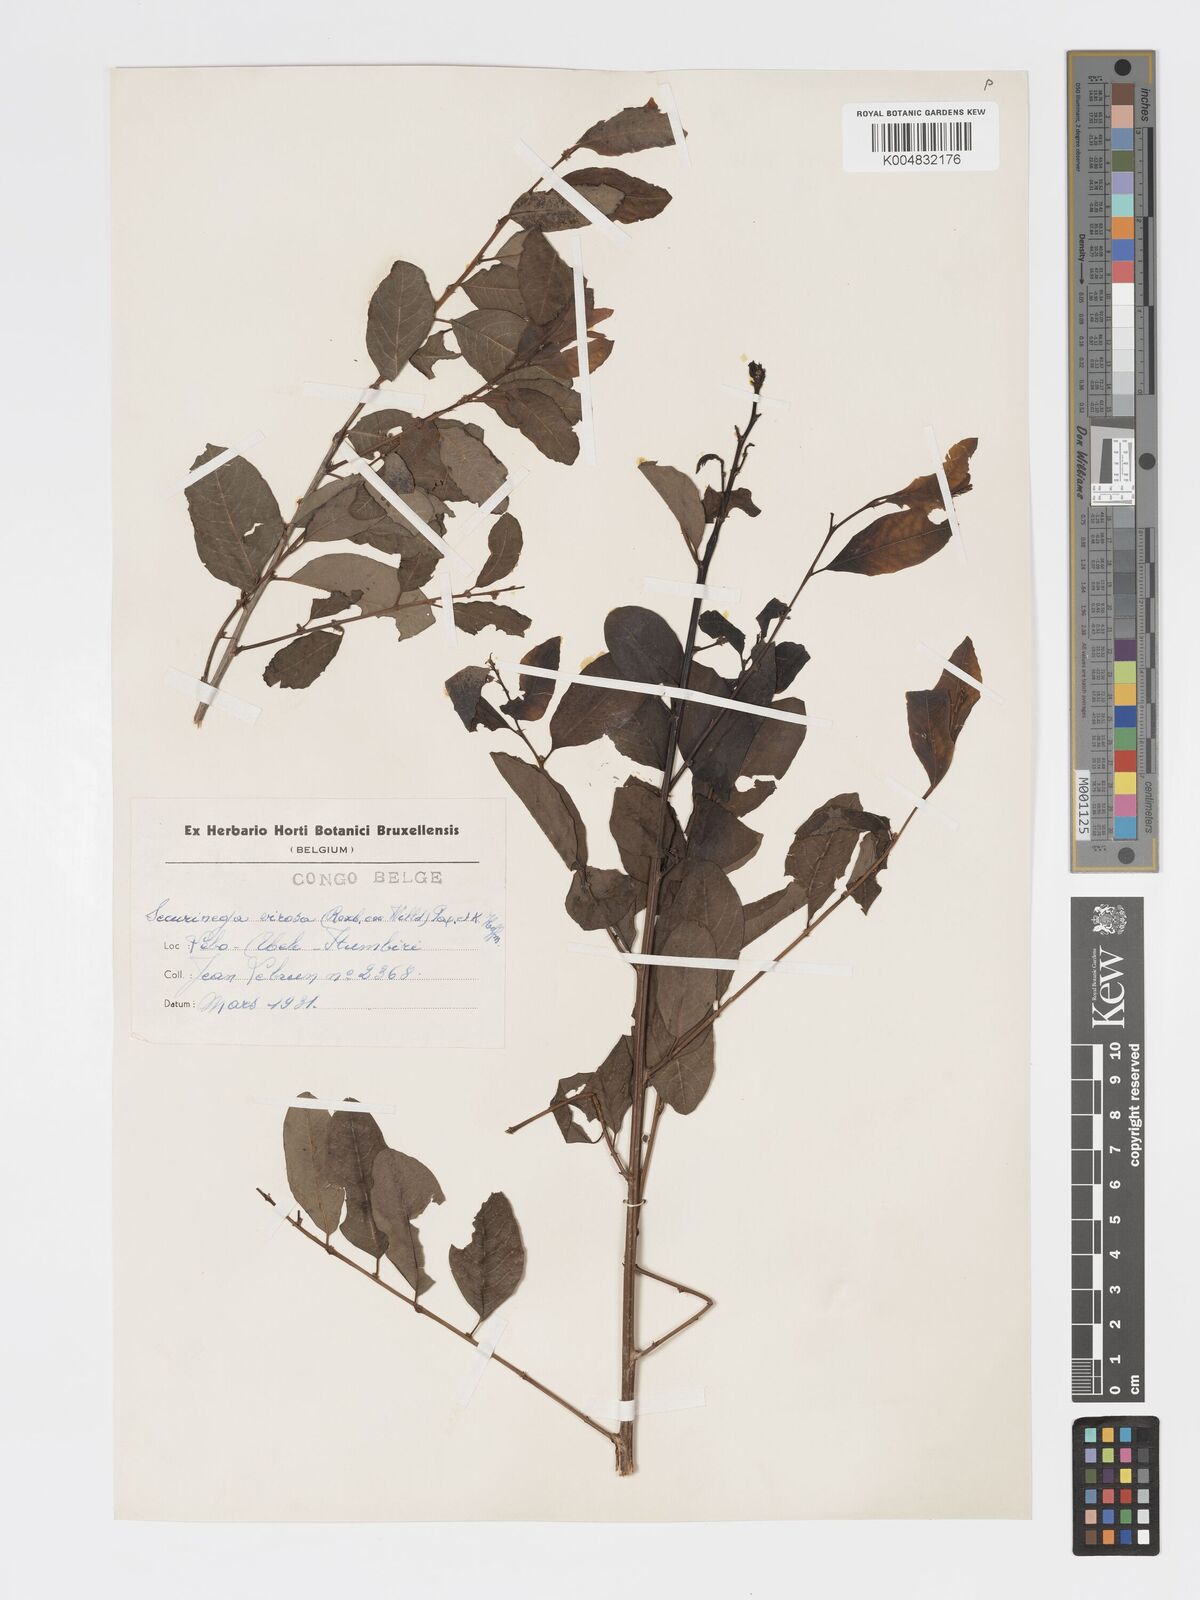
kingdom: Plantae
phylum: Tracheophyta
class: Magnoliopsida
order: Malpighiales
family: Phyllanthaceae
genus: Flueggea
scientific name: Flueggea virosa
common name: Common bushweed
